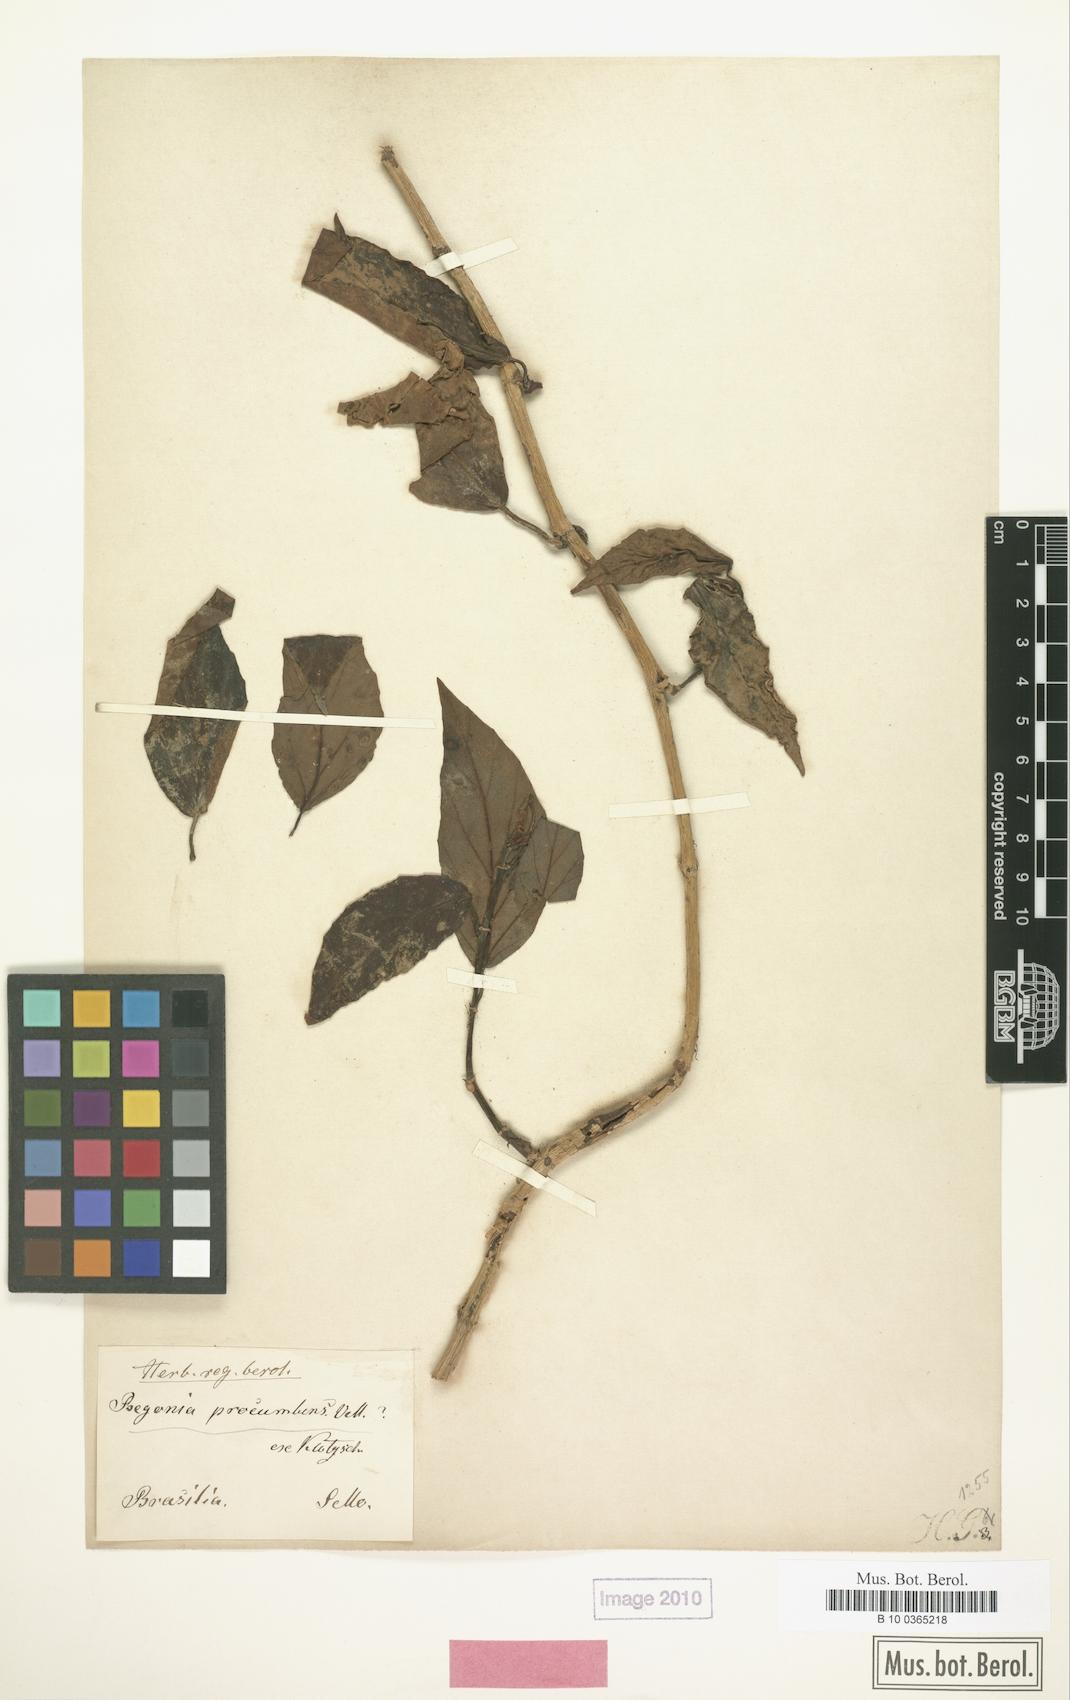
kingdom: Plantae
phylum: Tracheophyta
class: Magnoliopsida
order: Cucurbitales
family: Begoniaceae
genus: Begonia
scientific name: Begonia radicans
